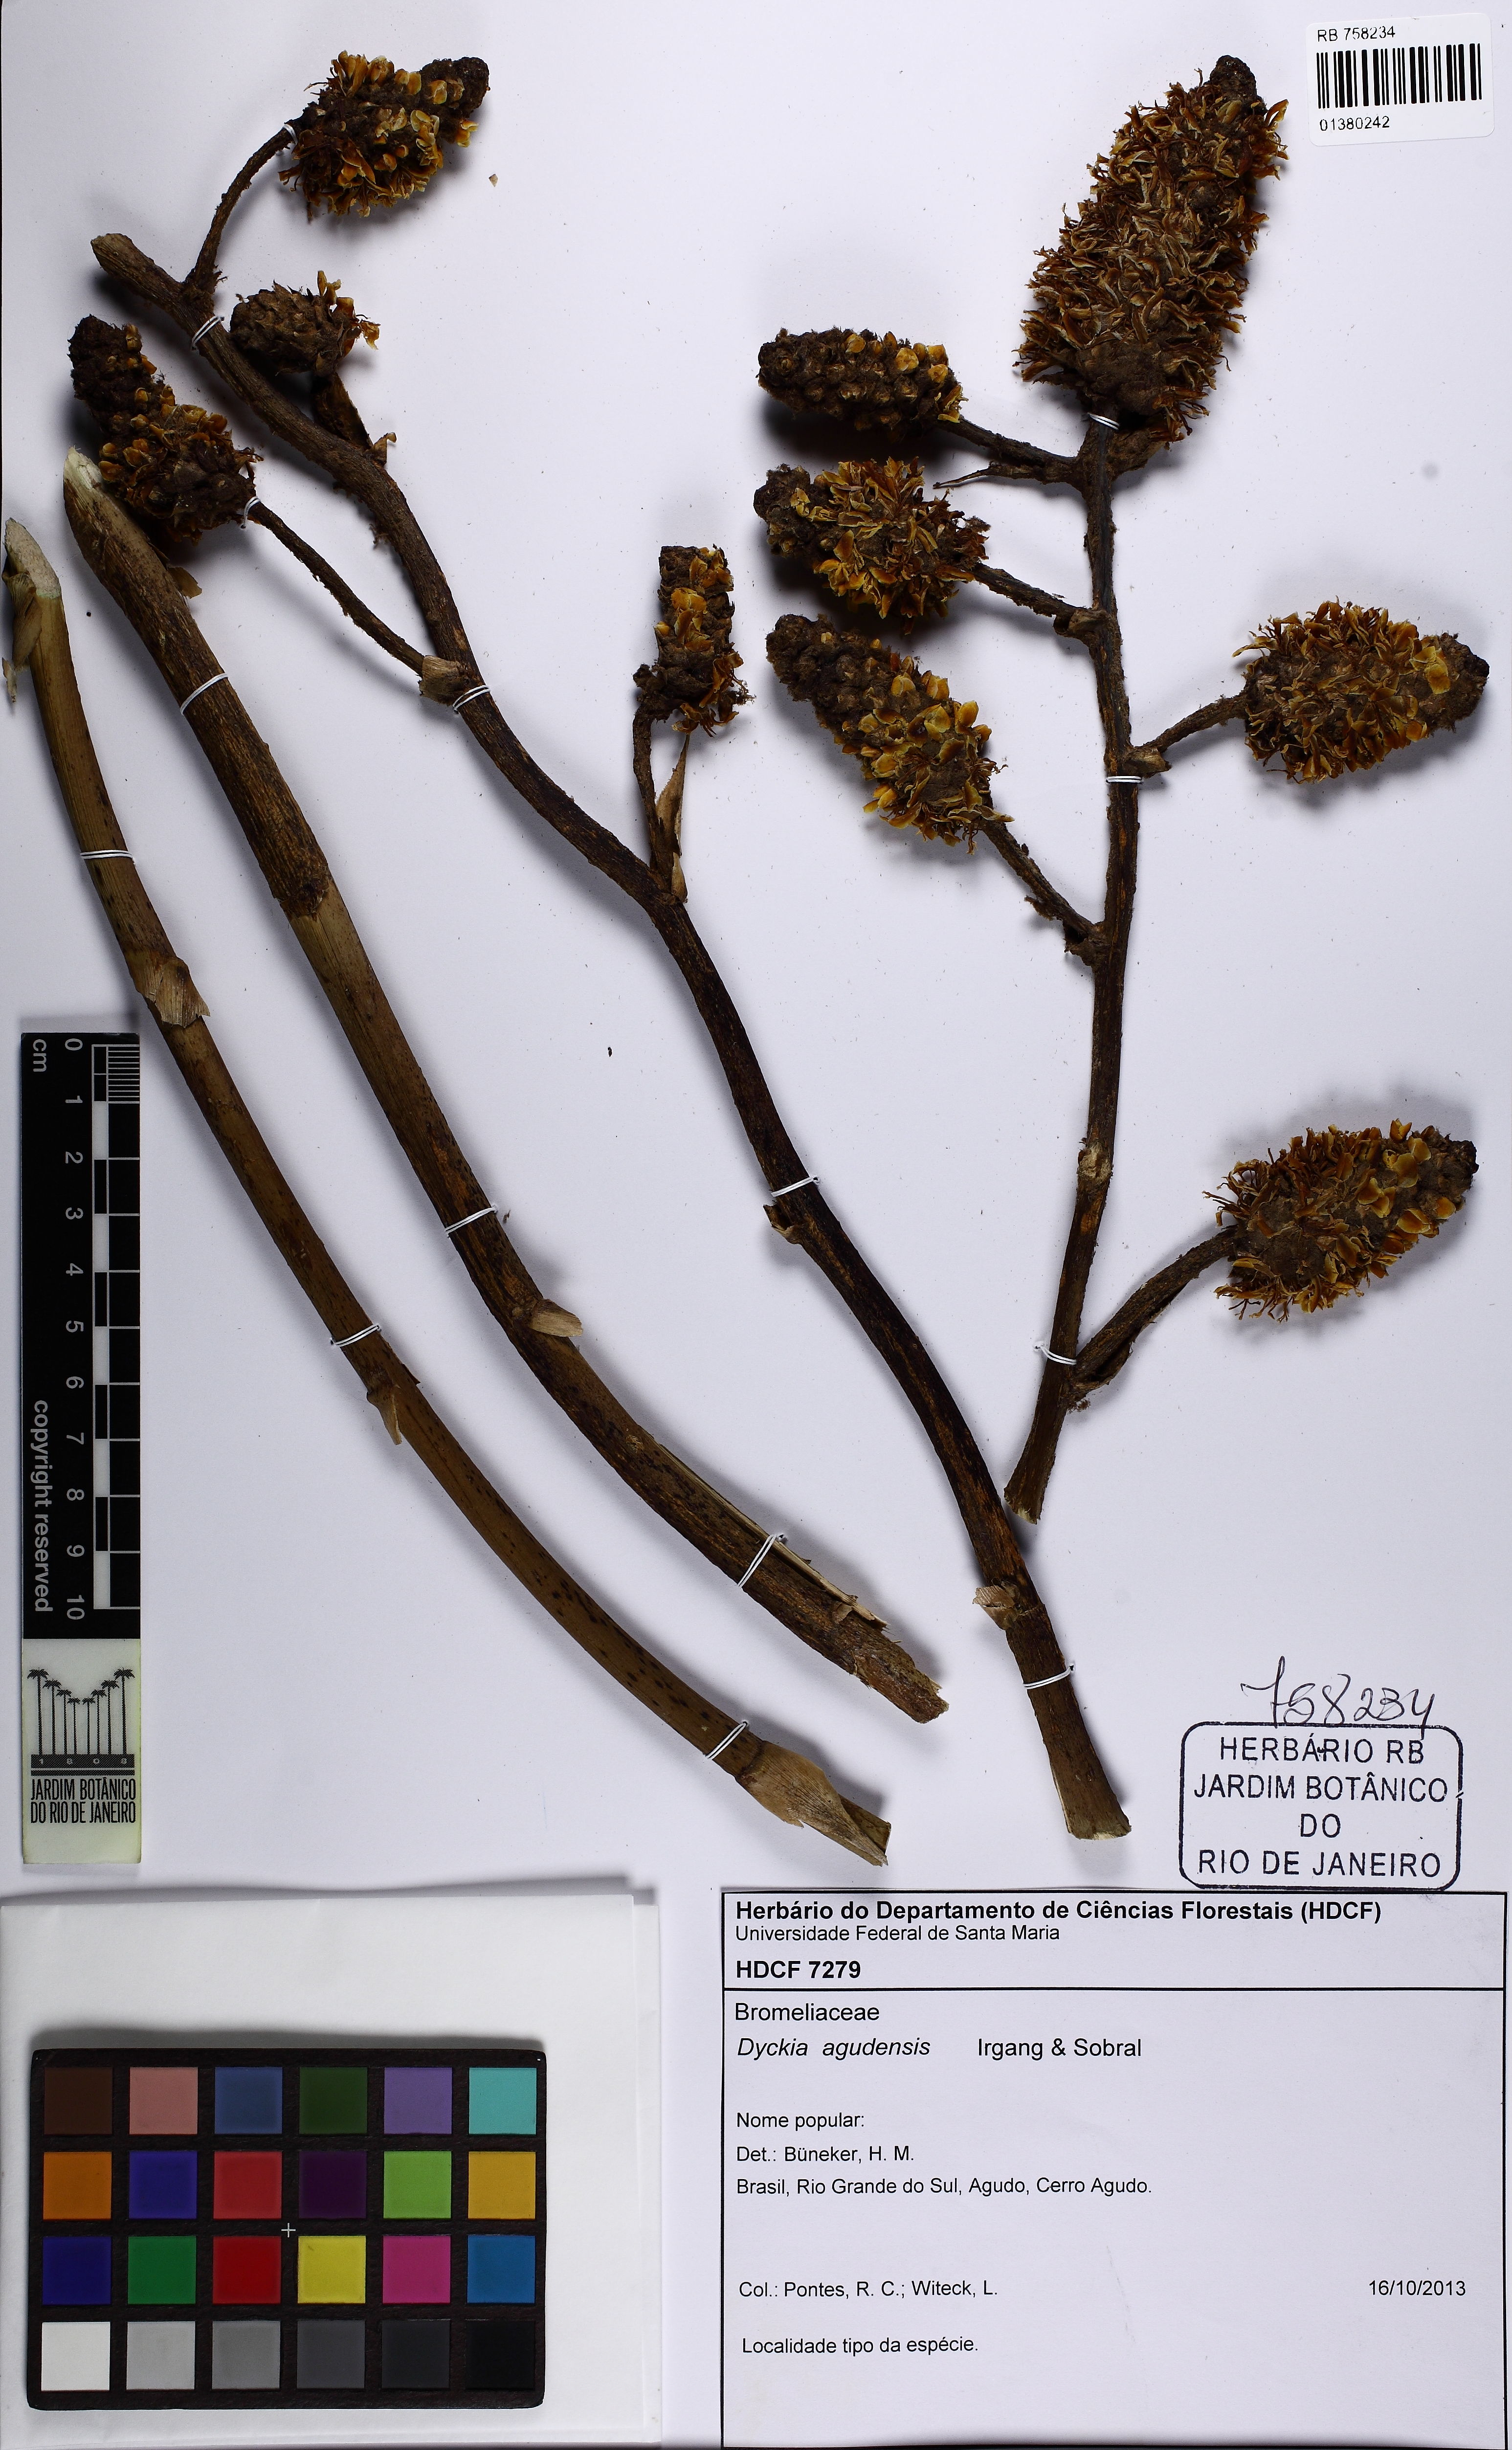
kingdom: Plantae
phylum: Tracheophyta
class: Liliopsida
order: Poales
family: Bromeliaceae
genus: Dyckia
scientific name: Dyckia agudensis
